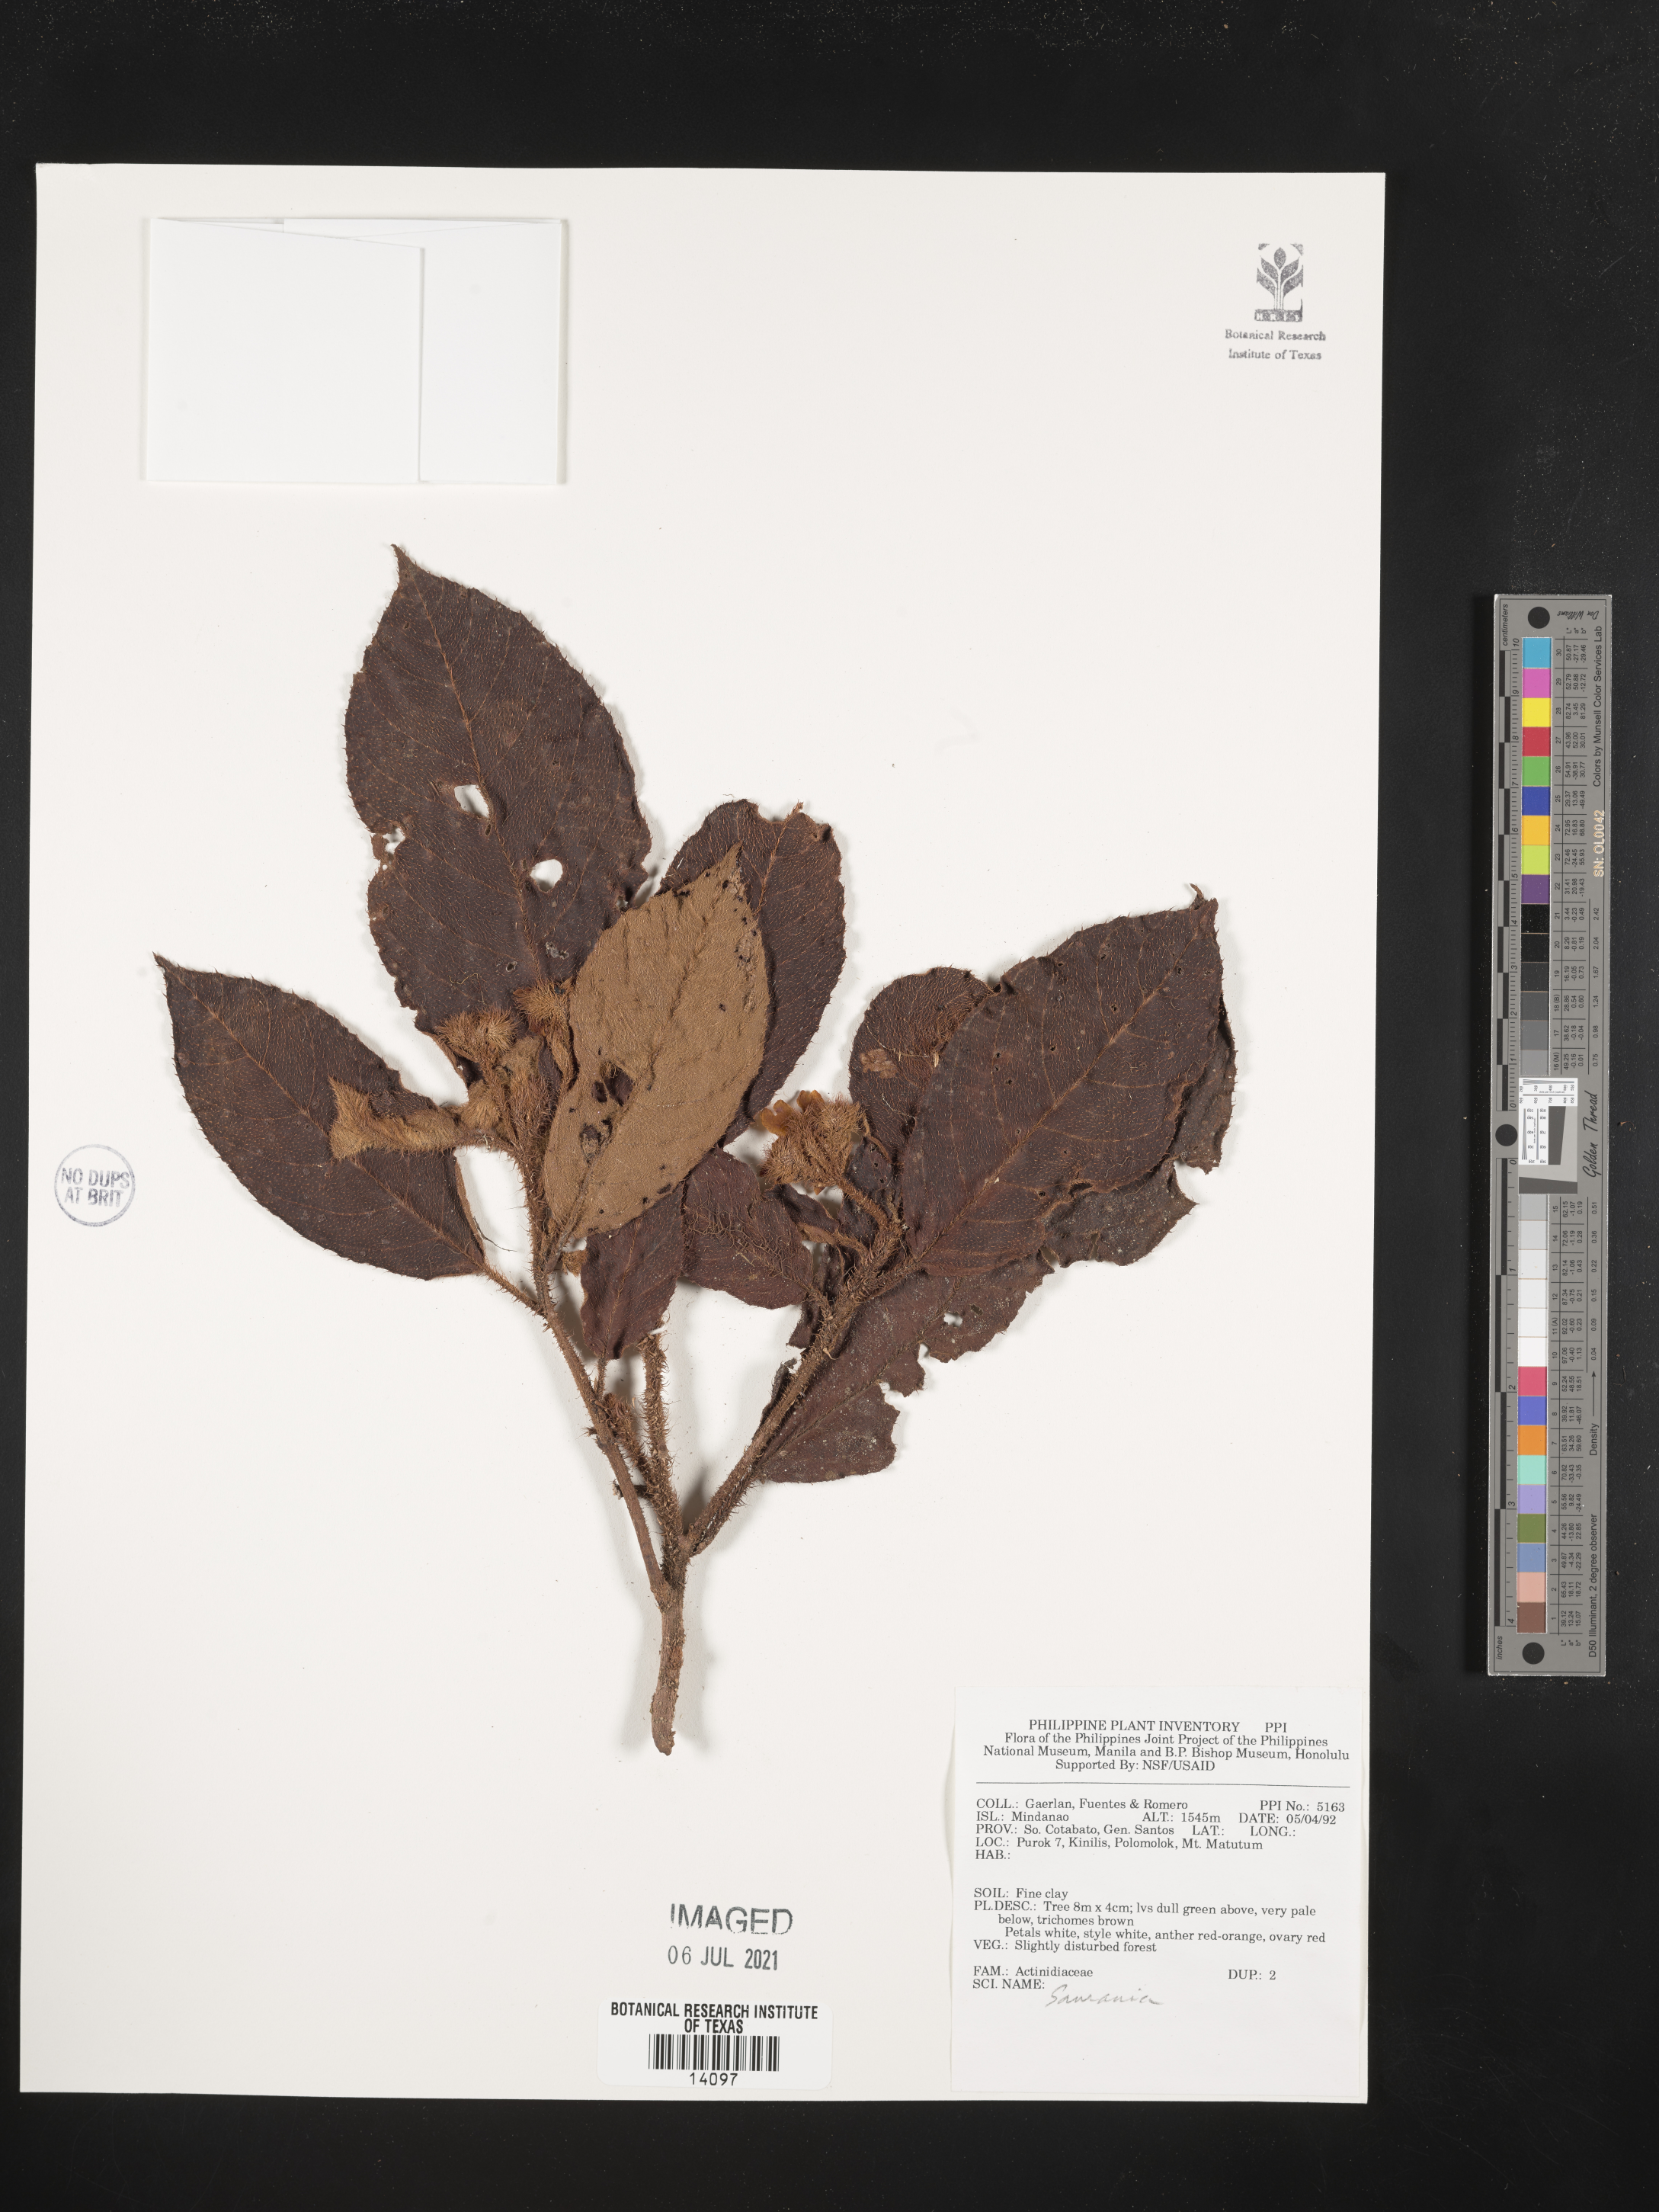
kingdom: Plantae
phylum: Tracheophyta
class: Magnoliopsida
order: Ericales
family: Actinidiaceae
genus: Saurauia
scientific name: Saurauia
